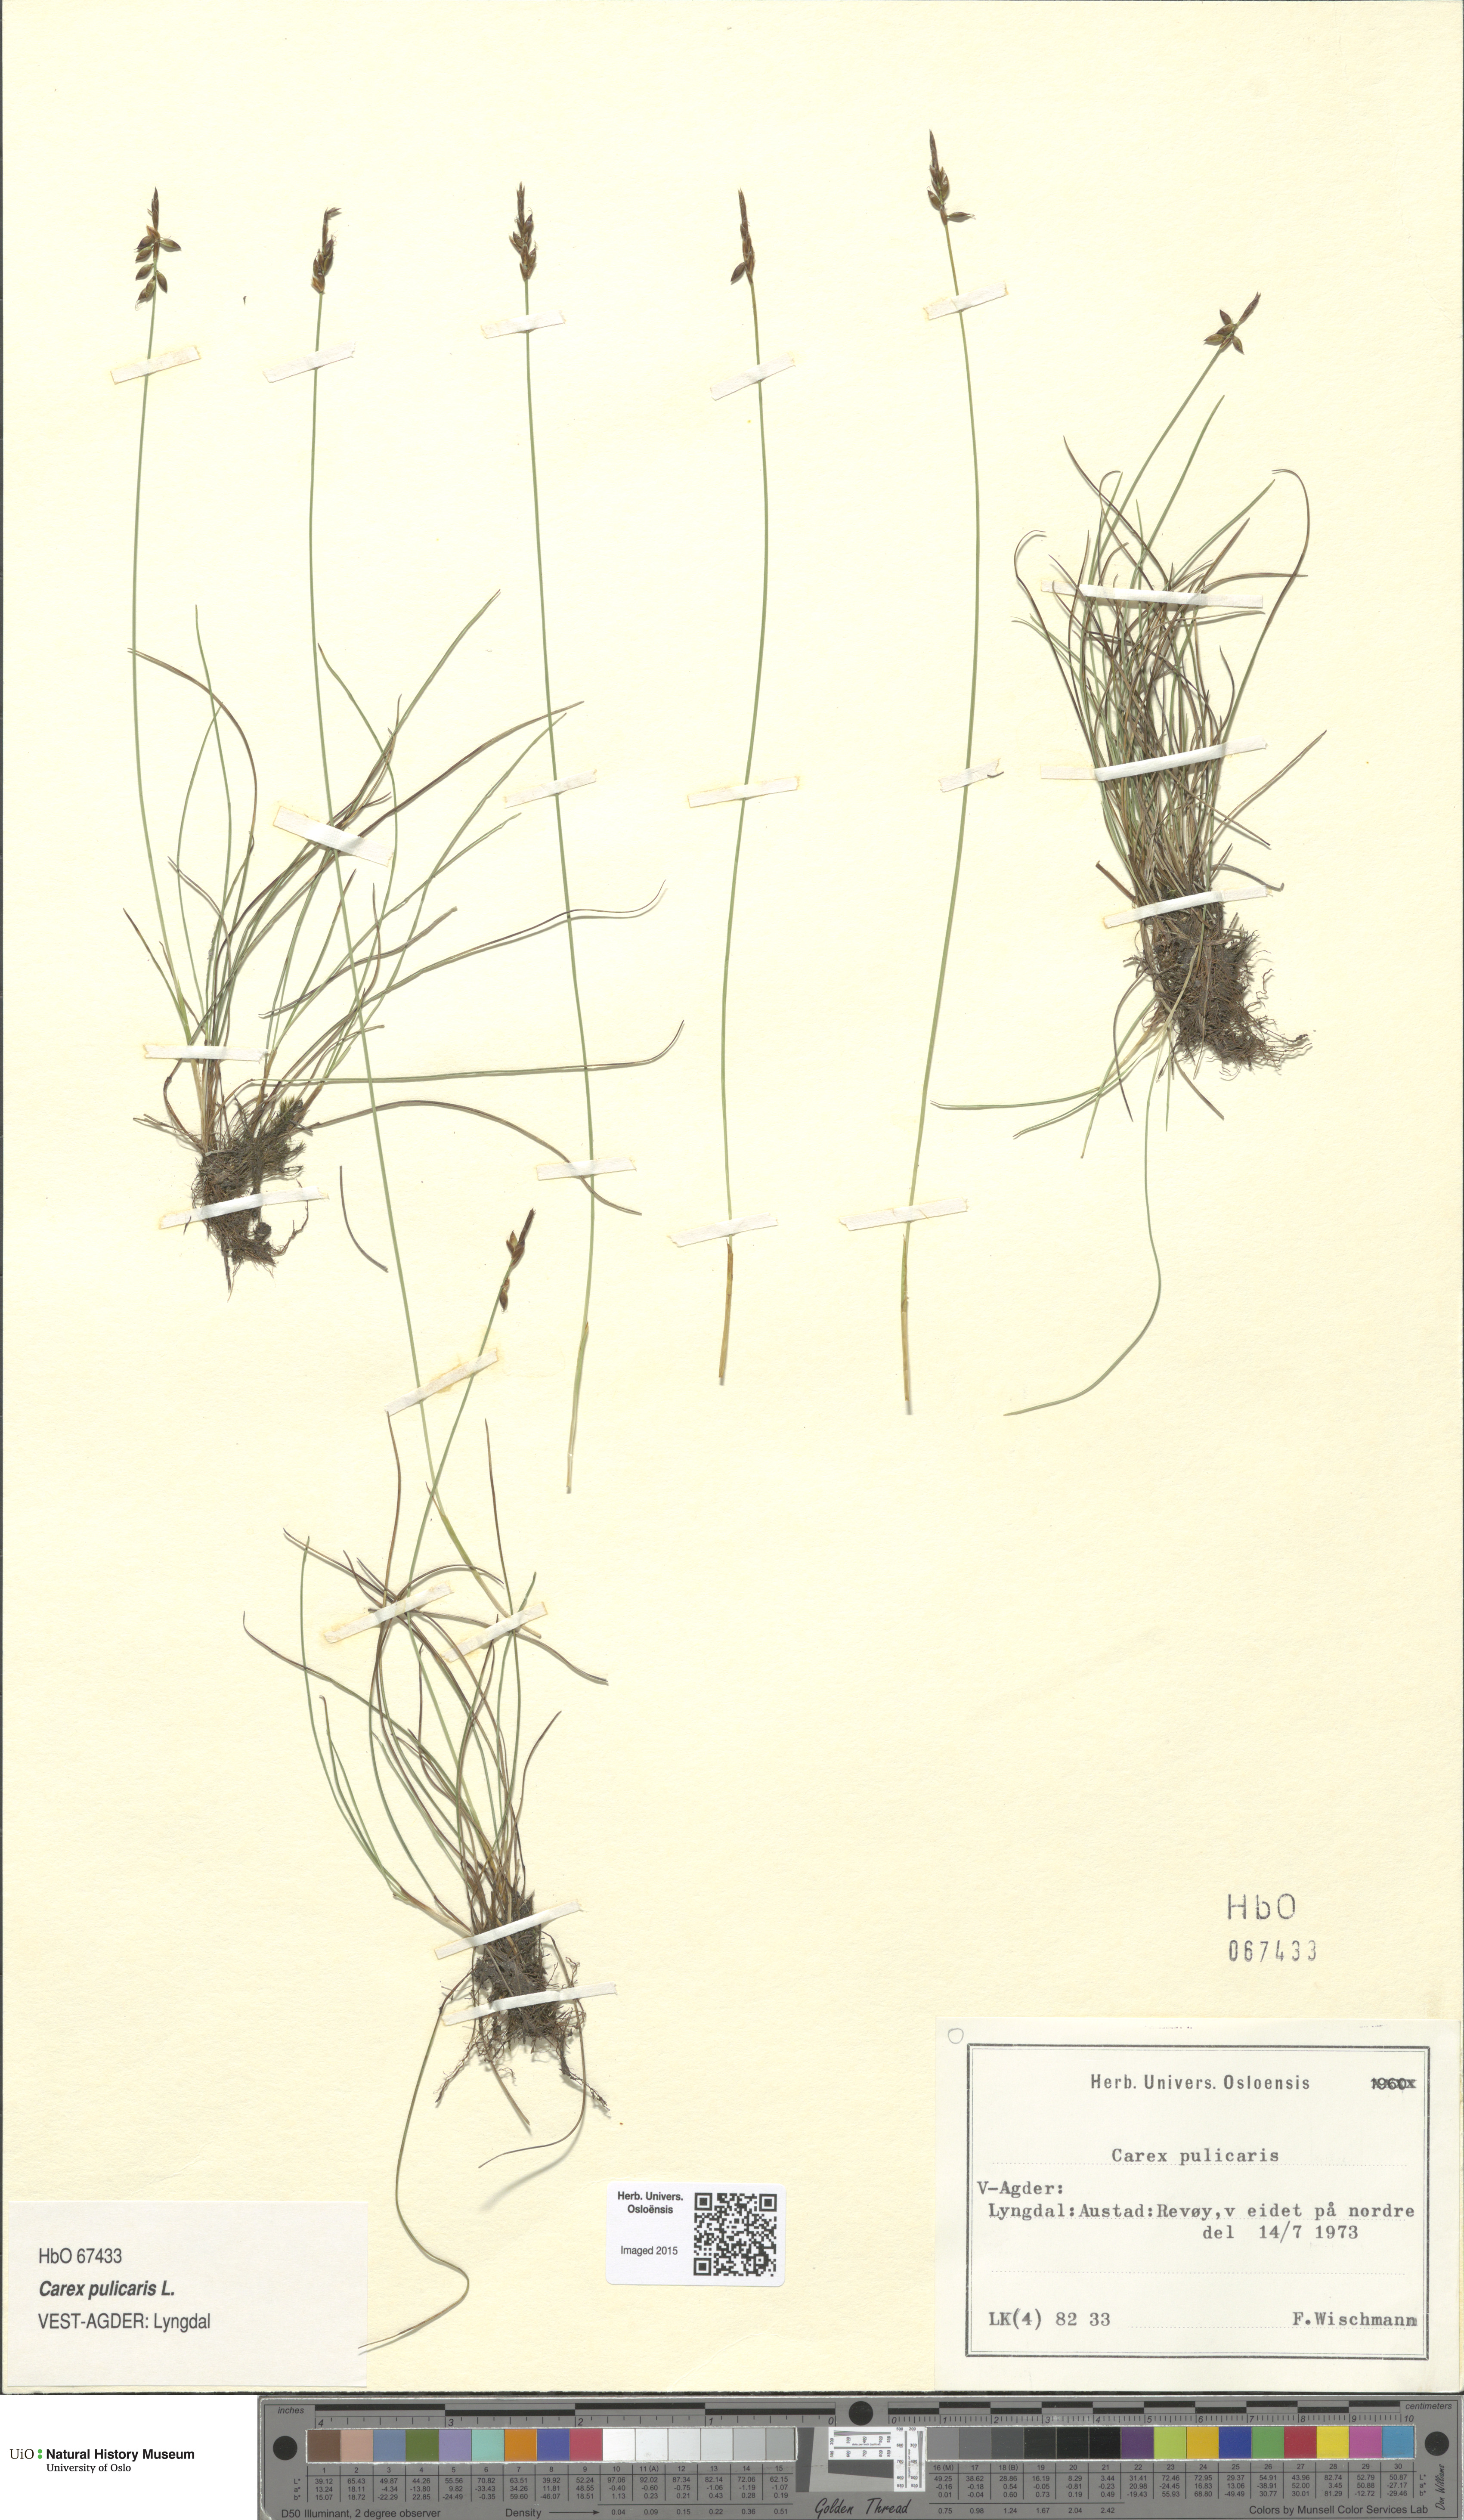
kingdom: Plantae
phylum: Tracheophyta
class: Liliopsida
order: Poales
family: Cyperaceae
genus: Carex
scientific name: Carex pulicaris
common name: Flea sedge
